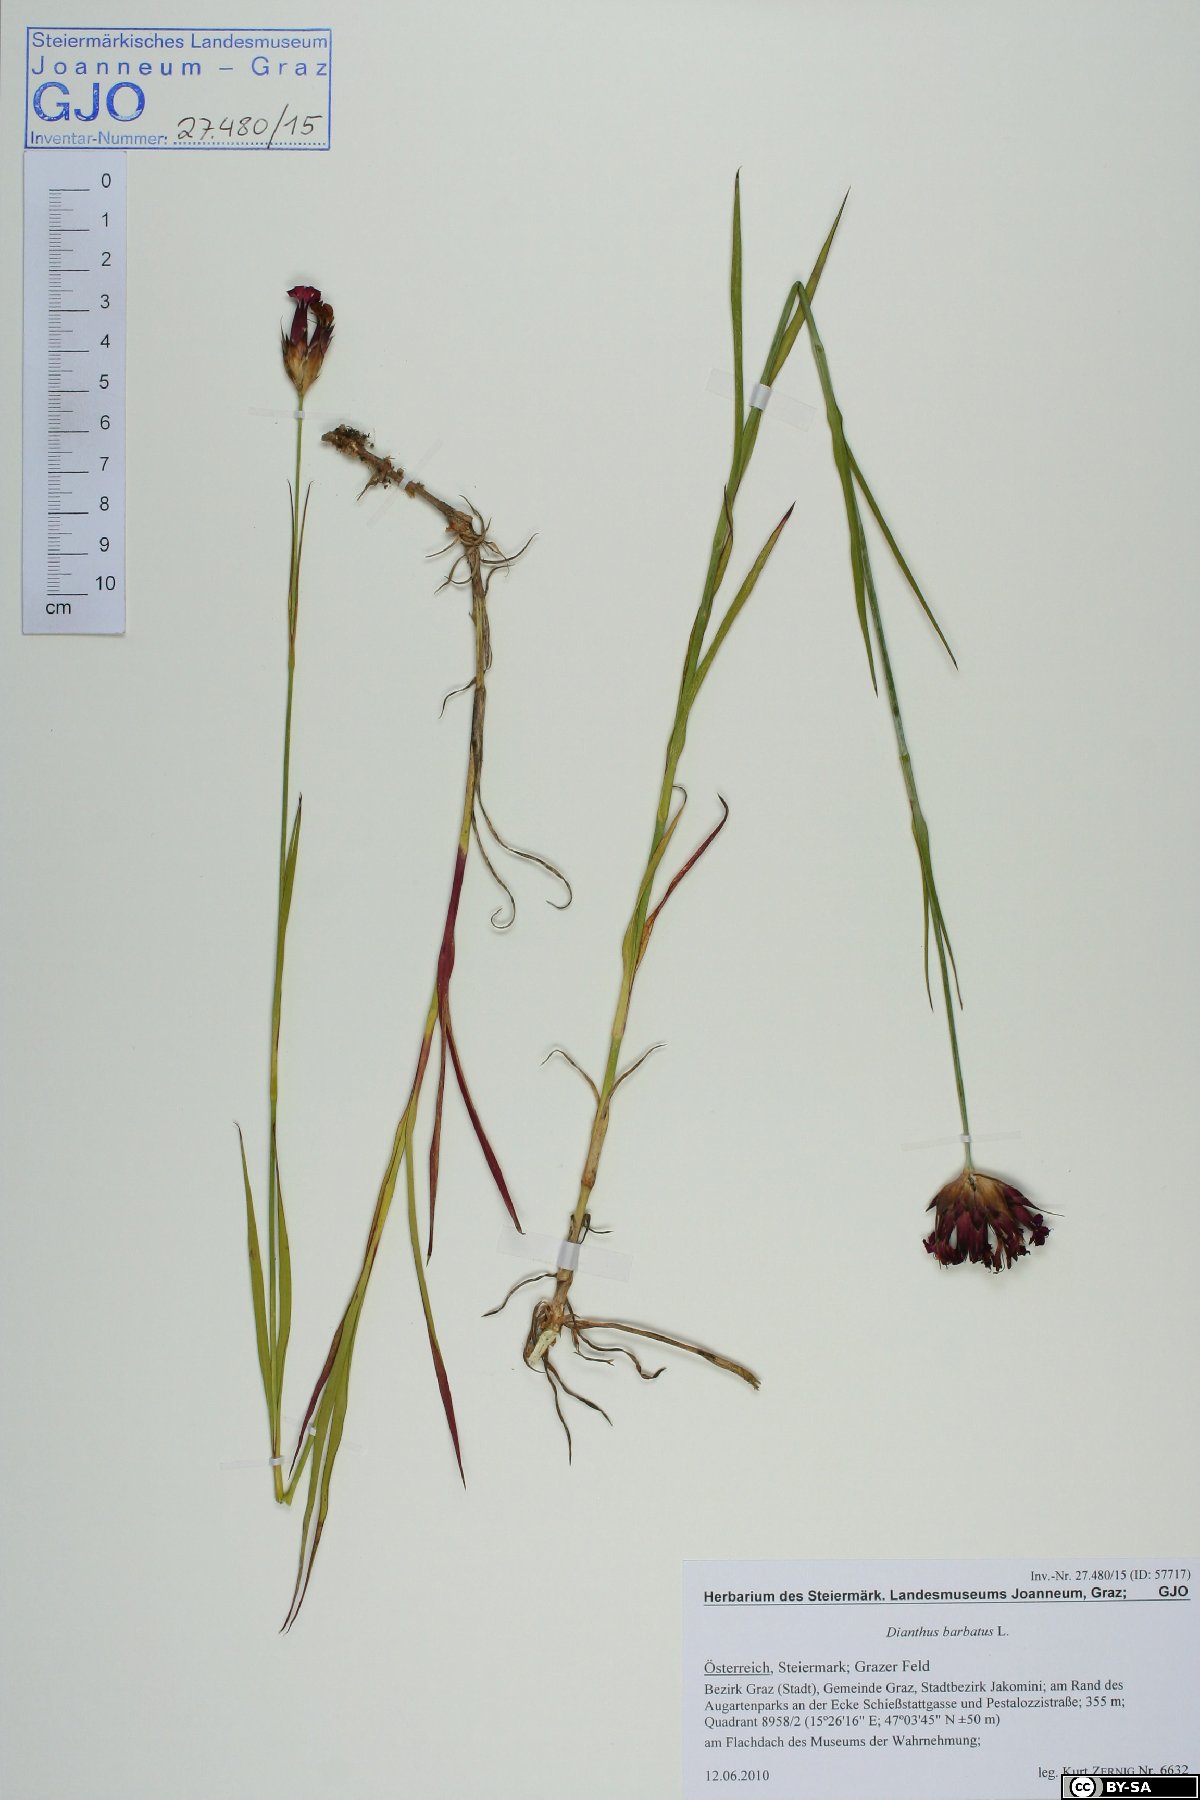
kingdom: Plantae
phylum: Tracheophyta
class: Magnoliopsida
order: Caryophyllales
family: Caryophyllaceae
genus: Dianthus
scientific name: Dianthus barbatus
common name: Sweet-william
